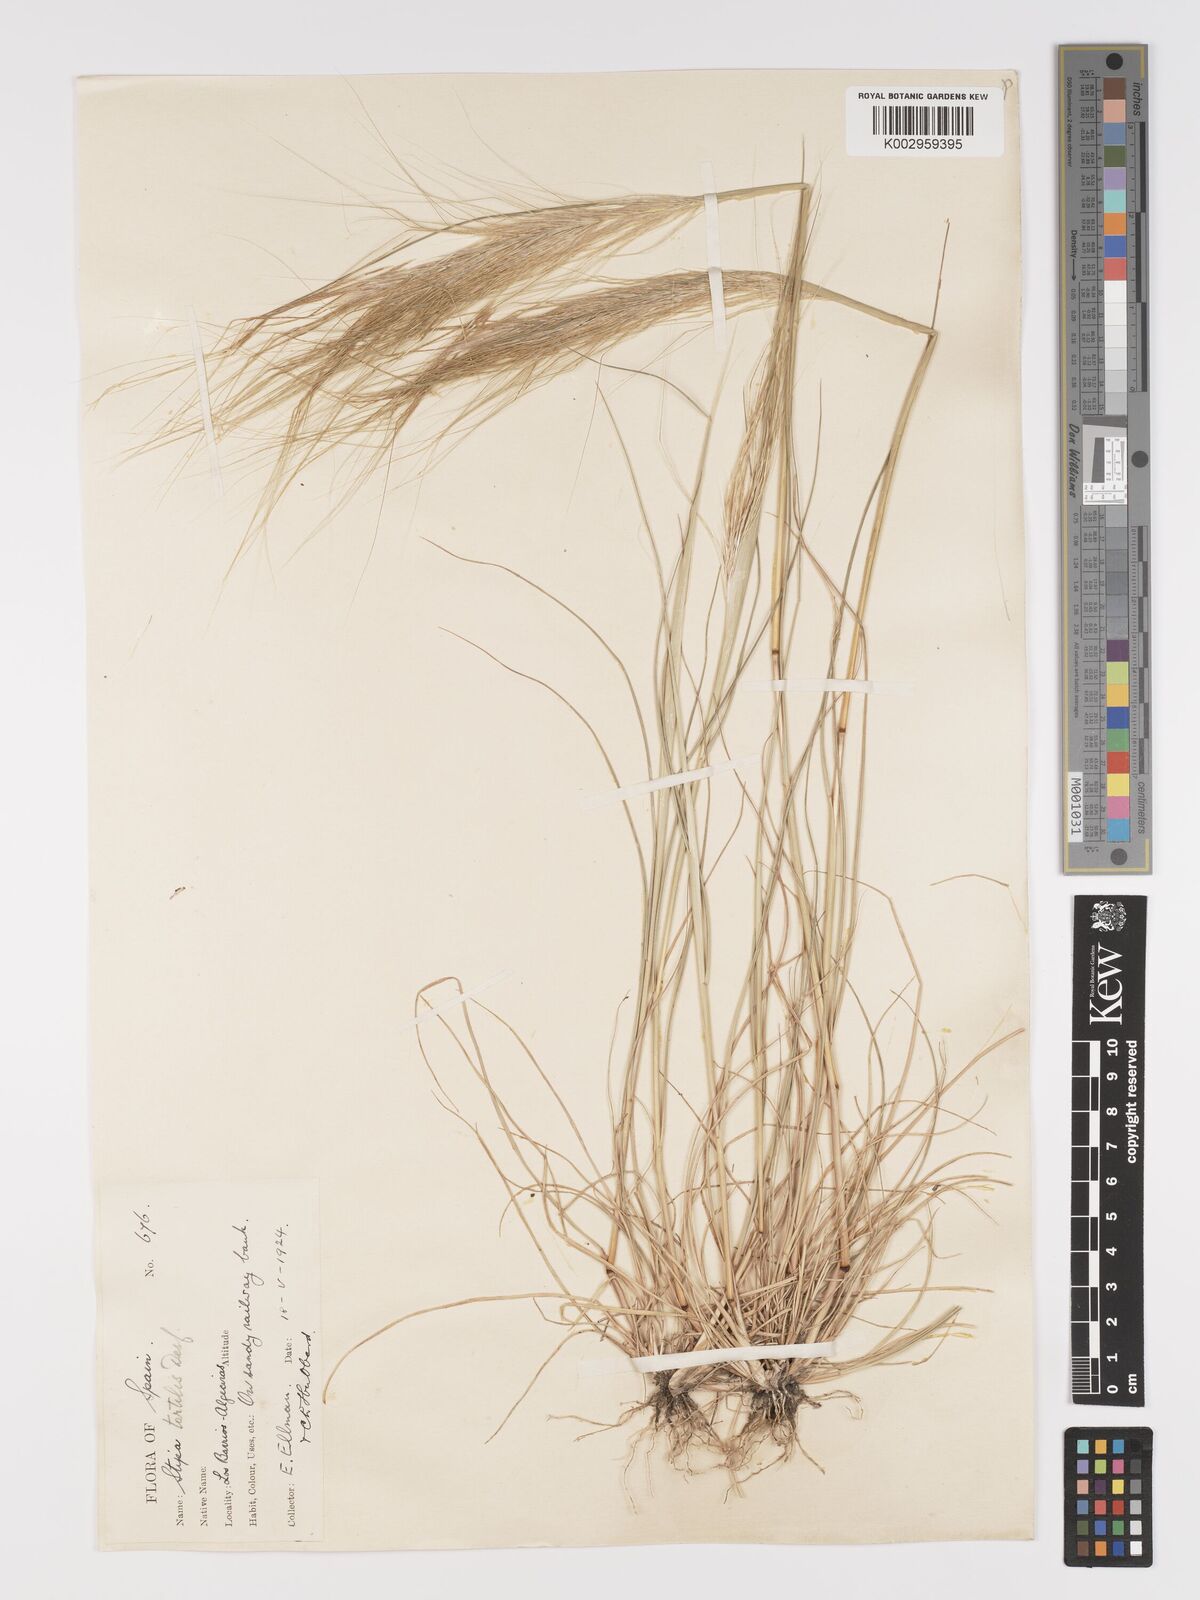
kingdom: Plantae
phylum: Tracheophyta
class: Liliopsida
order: Poales
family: Poaceae
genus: Stipellula
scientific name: Stipellula capensis
